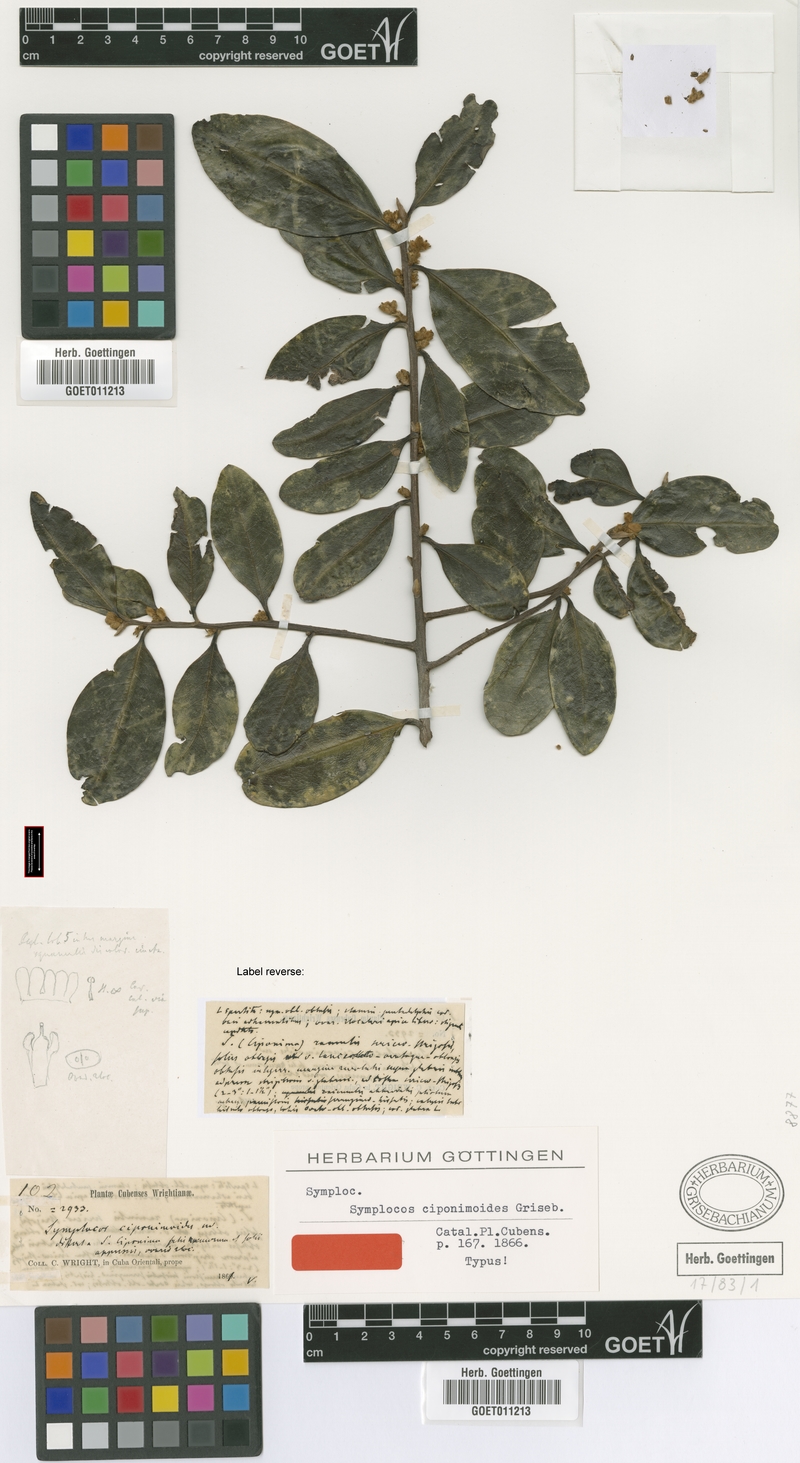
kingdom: Plantae
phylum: Tracheophyta
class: Magnoliopsida
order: Ericales
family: Symplocaceae
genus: Symplocos
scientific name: Symplocos ciponimoides
